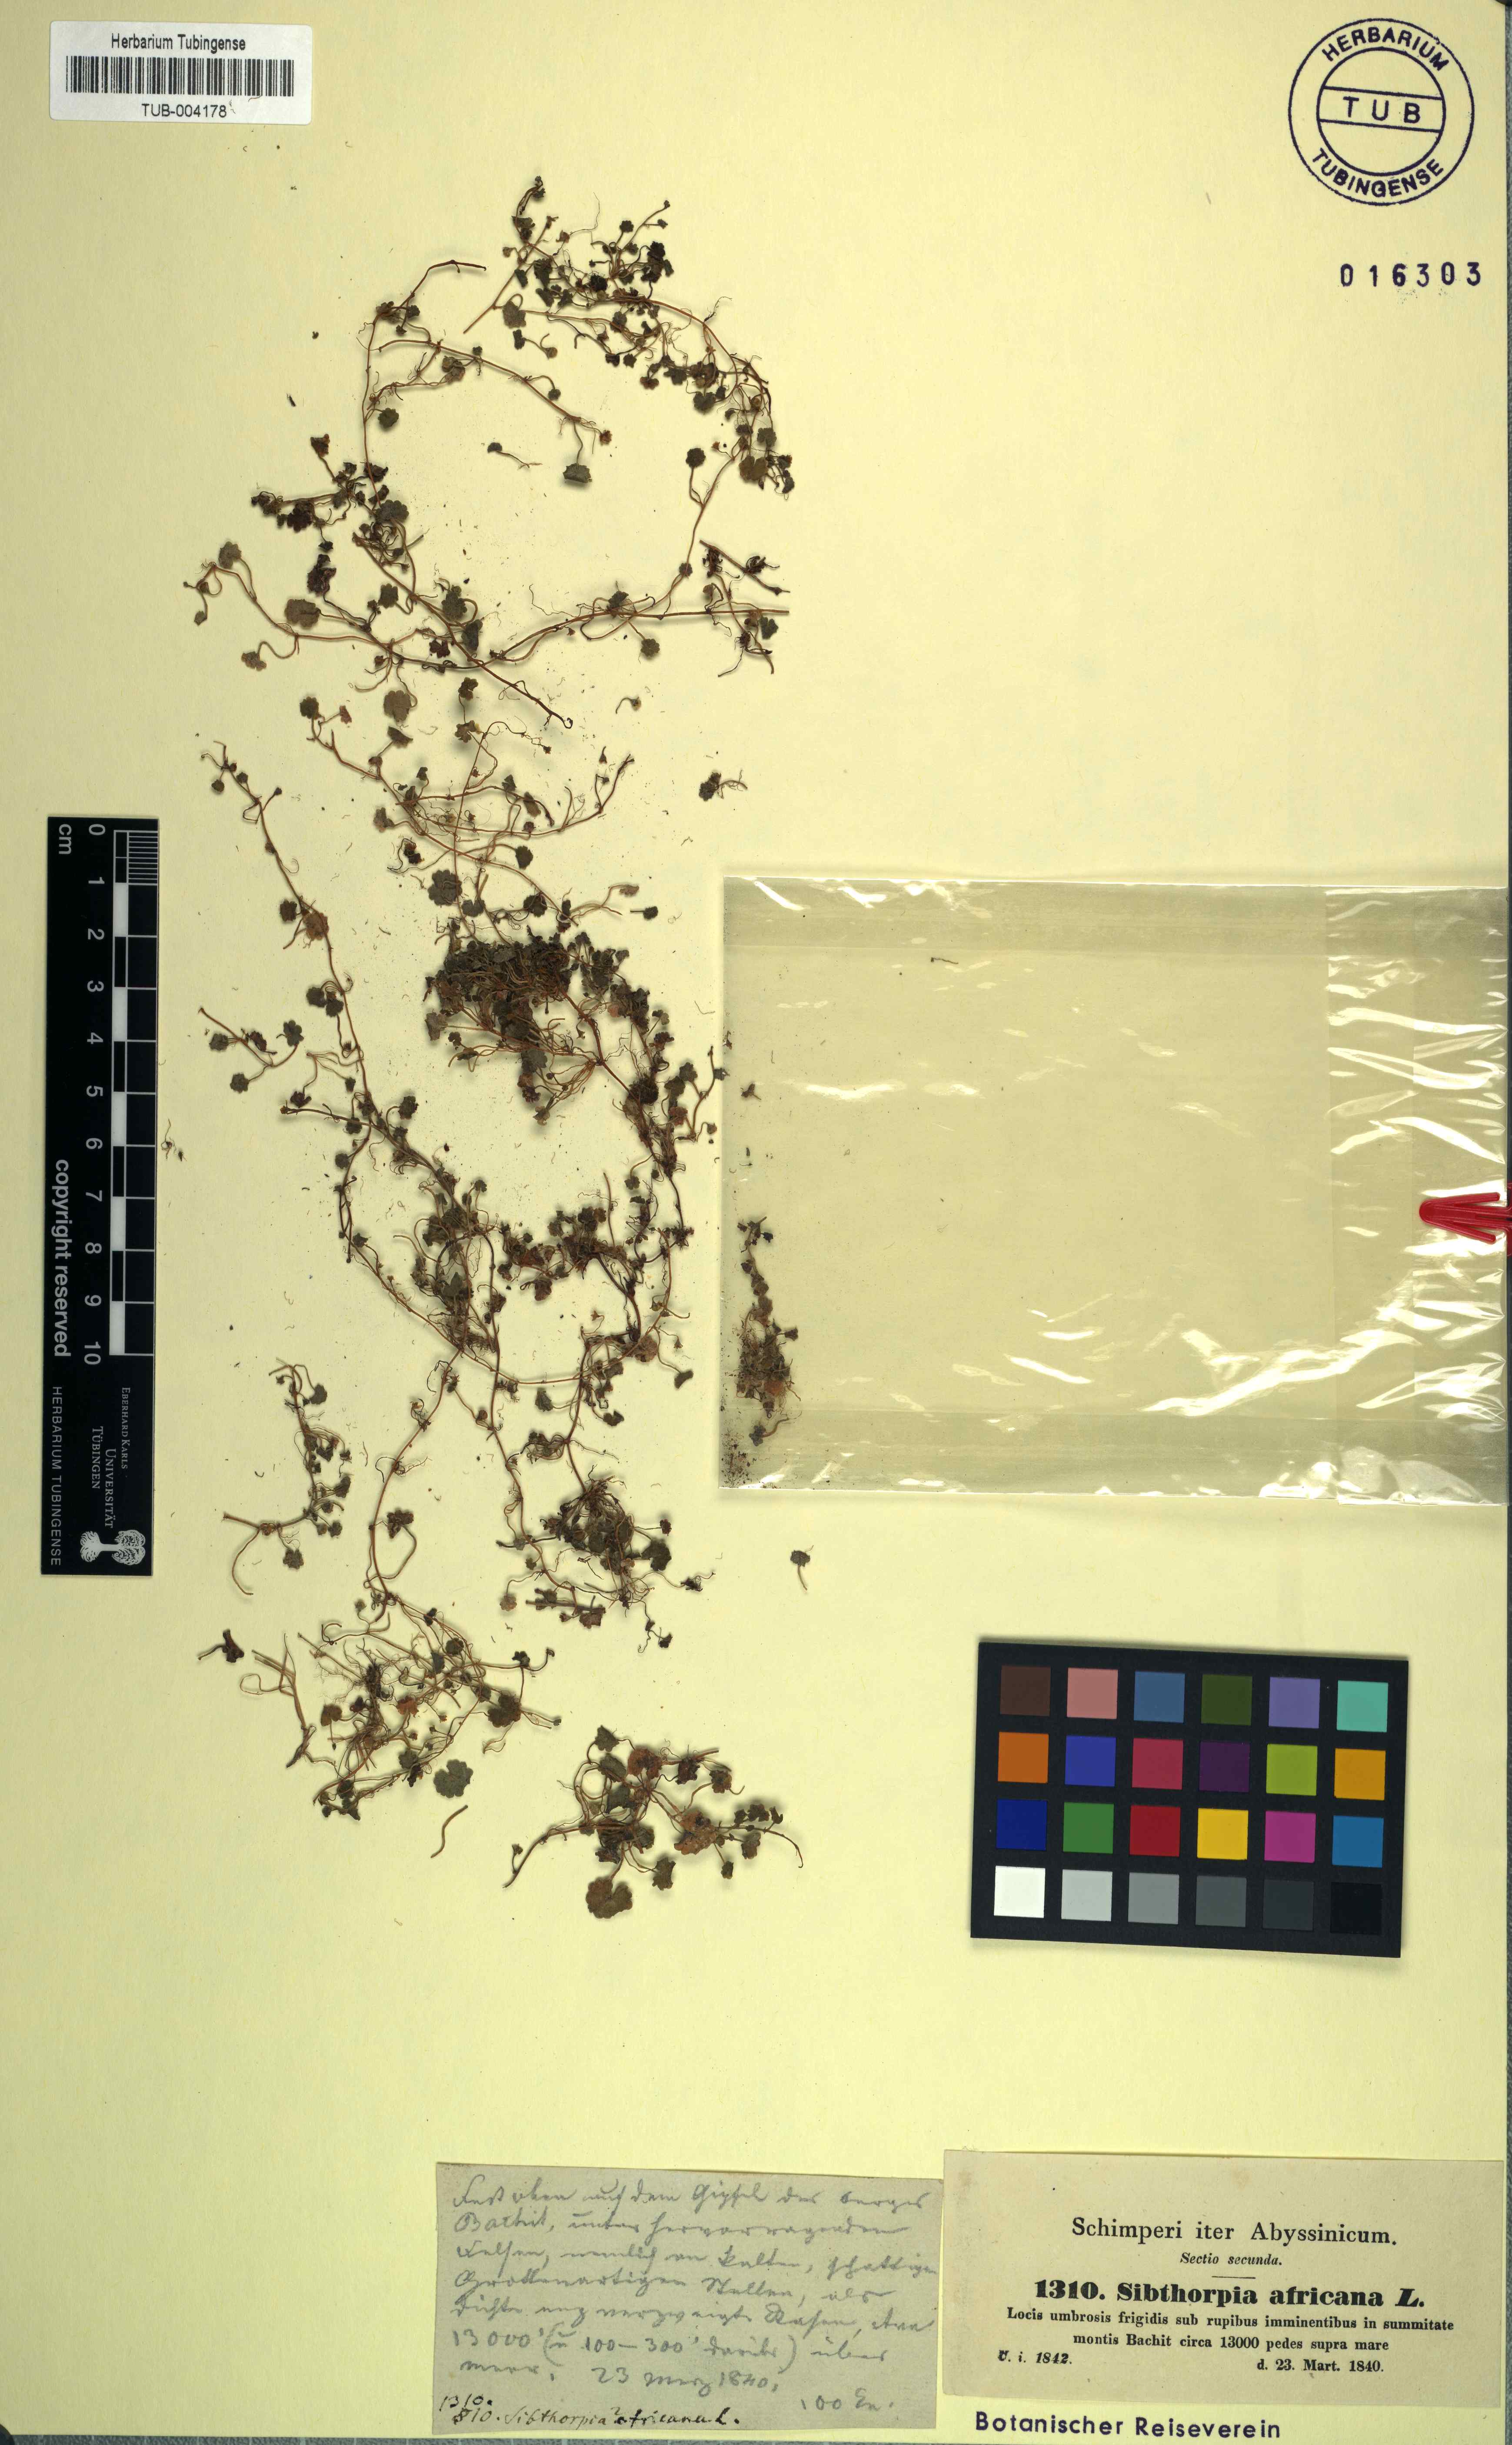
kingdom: Plantae
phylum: Tracheophyta
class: Magnoliopsida
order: Lamiales
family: Plantaginaceae
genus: Sibthorpia
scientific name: Sibthorpia africana
